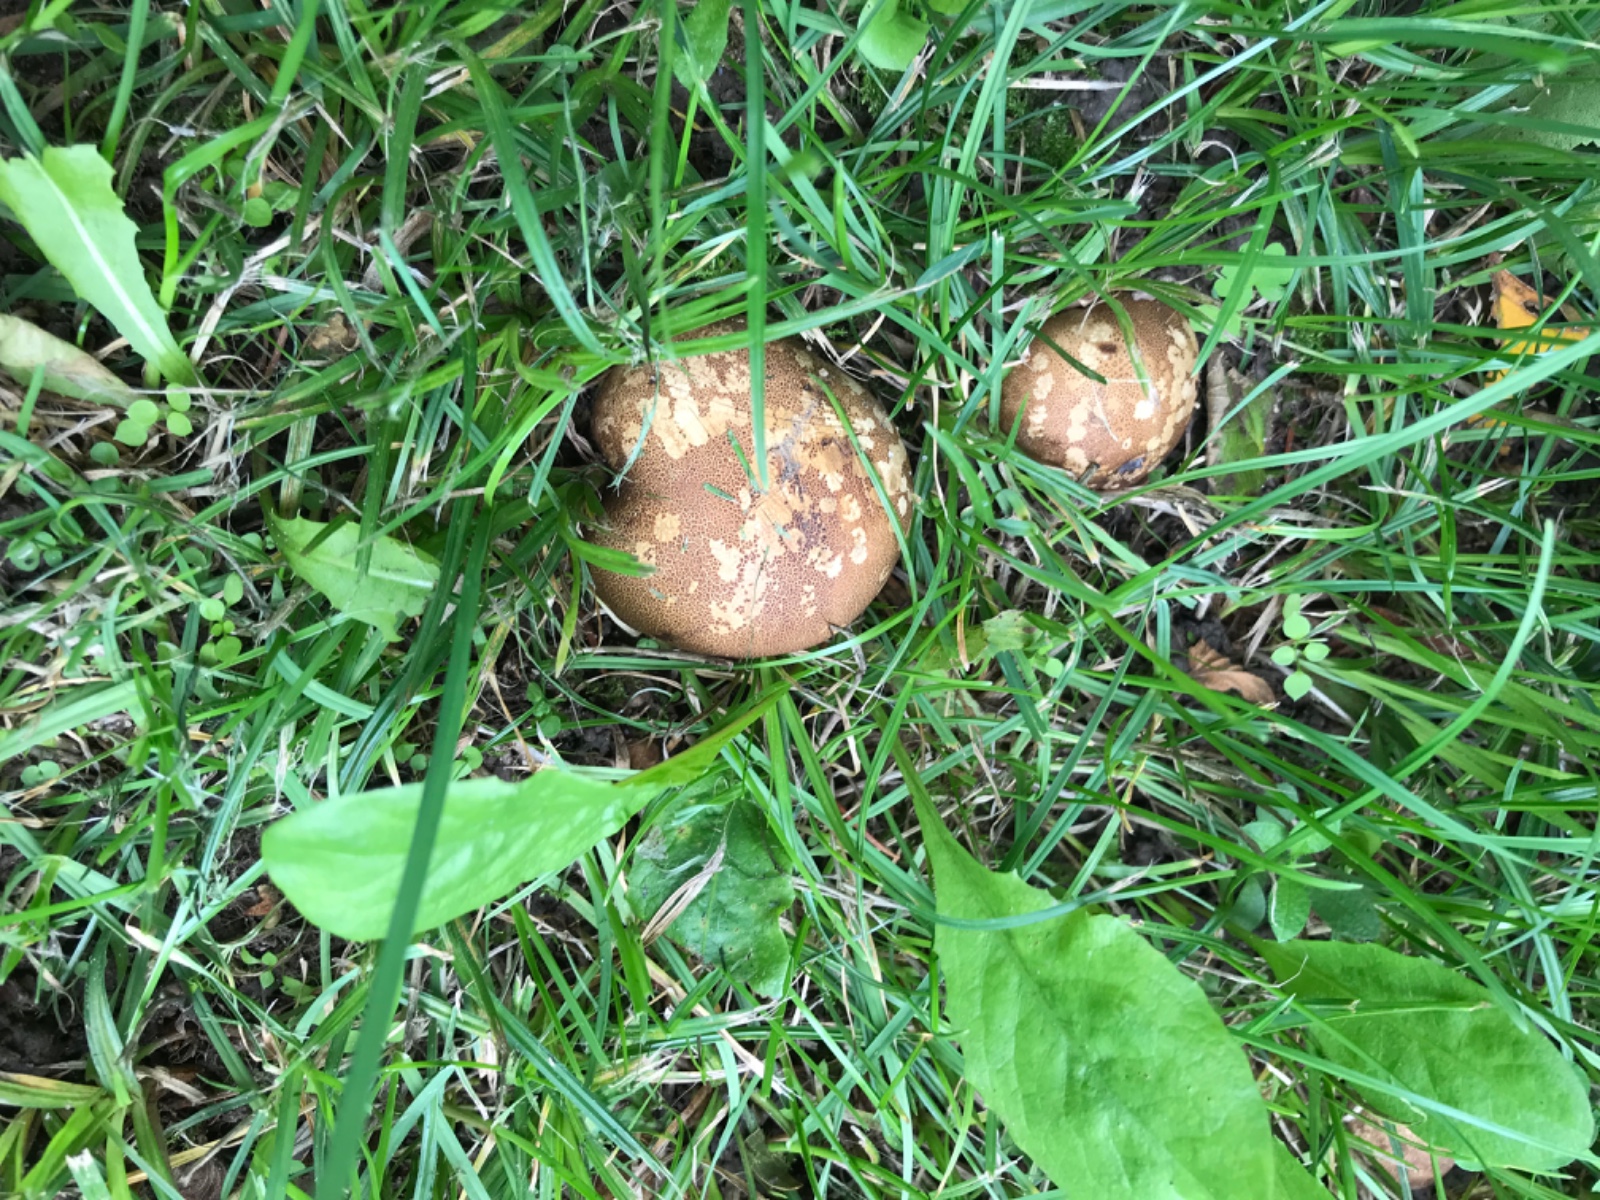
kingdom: Fungi
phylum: Basidiomycota
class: Agaricomycetes
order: Boletales
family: Sclerodermataceae
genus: Scleroderma
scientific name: Scleroderma areolatum
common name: plettet bruskbold
